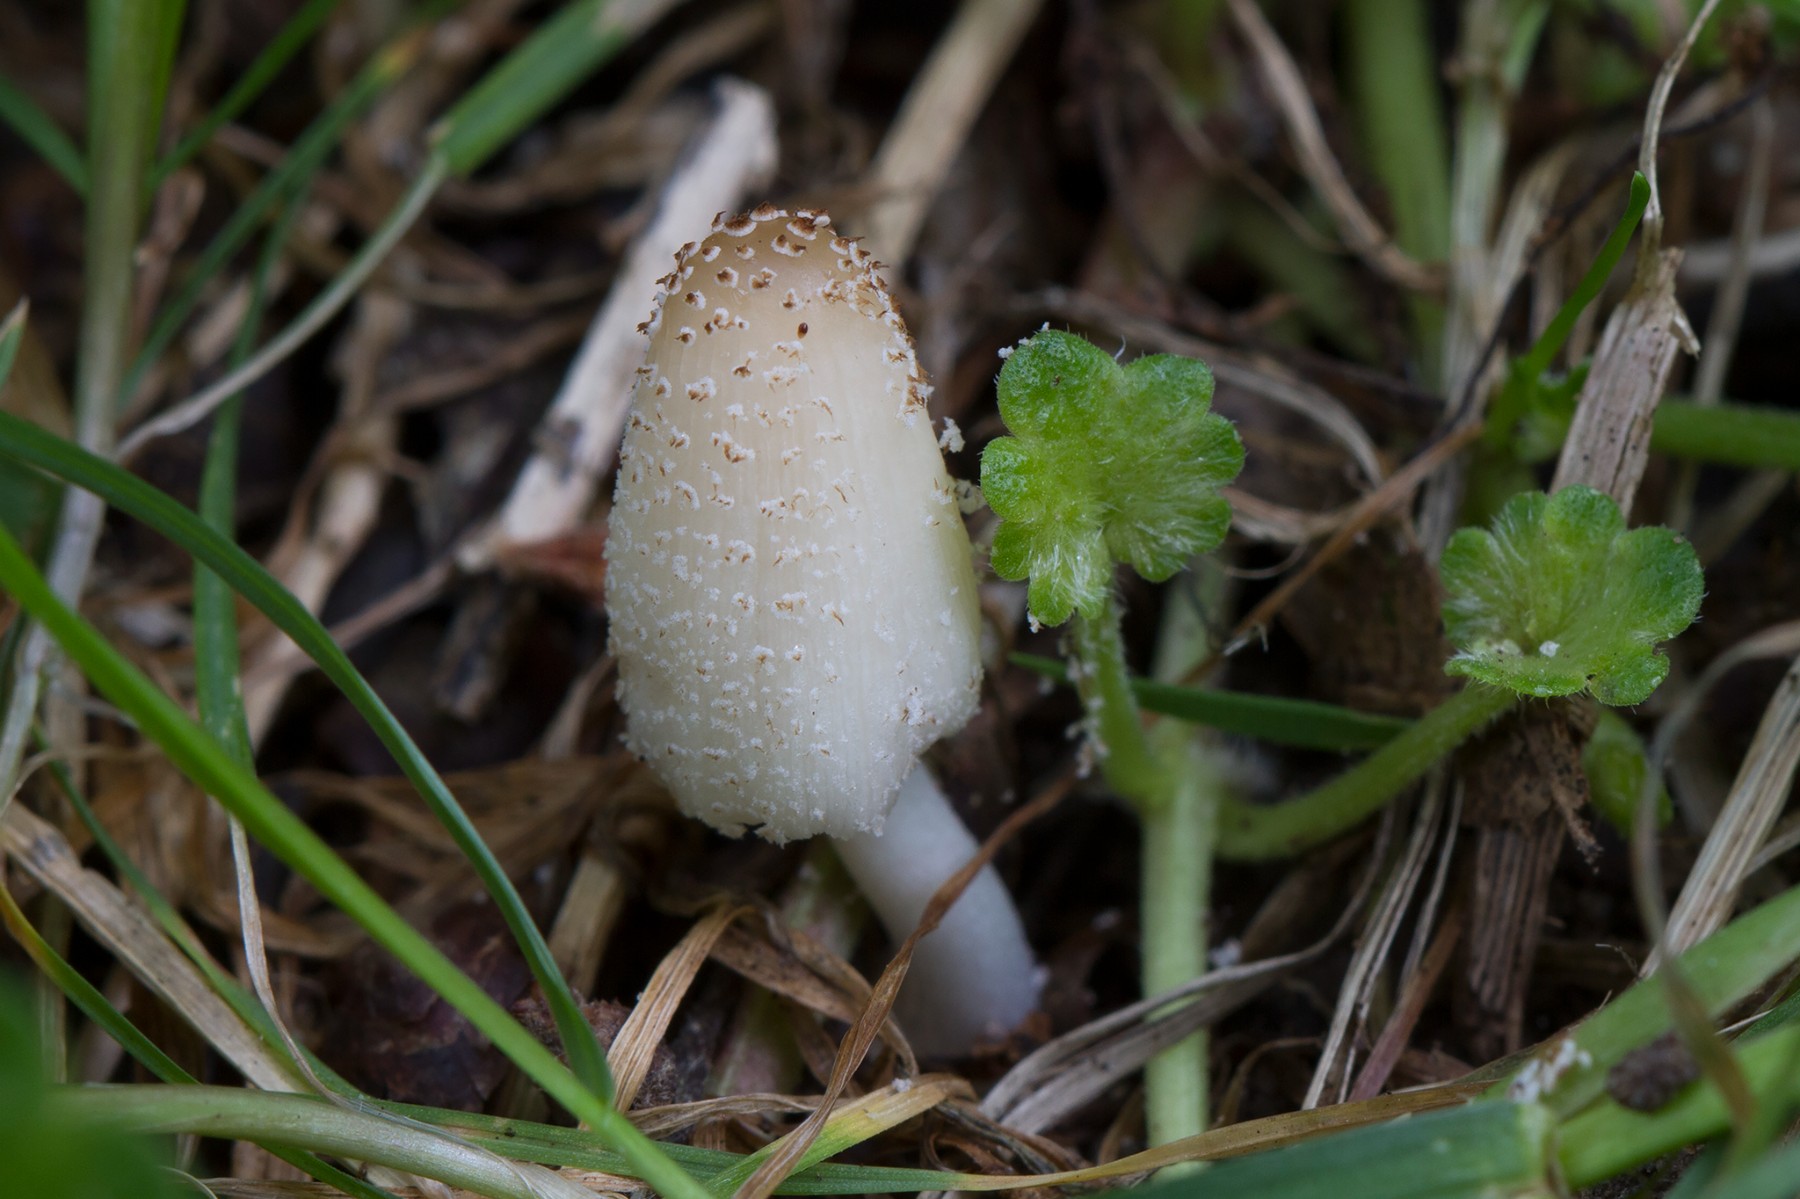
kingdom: Fungi
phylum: Basidiomycota
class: Agaricomycetes
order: Agaricales
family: Psathyrellaceae
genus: Coprinellus
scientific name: Coprinellus domesticus
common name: hus-blækhat
